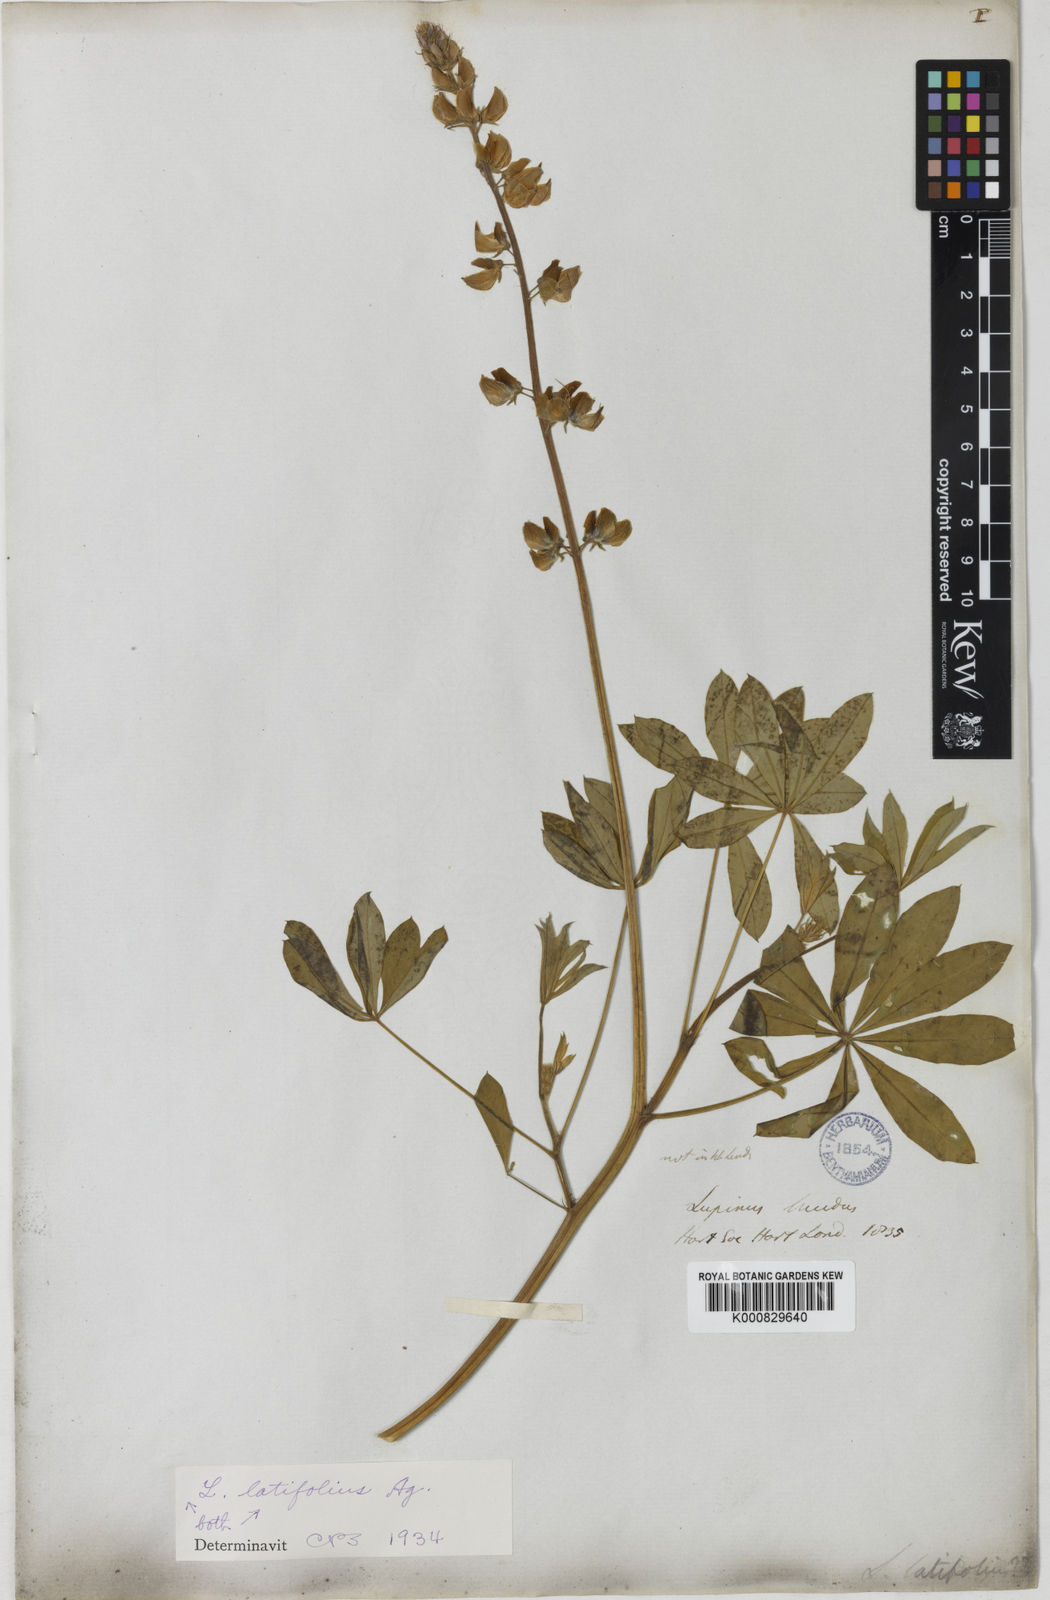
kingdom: Plantae
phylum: Tracheophyta
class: Magnoliopsida
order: Fabales
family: Fabaceae
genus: Lupinus
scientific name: Lupinus latifolius
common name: Broad-leaved lupine
